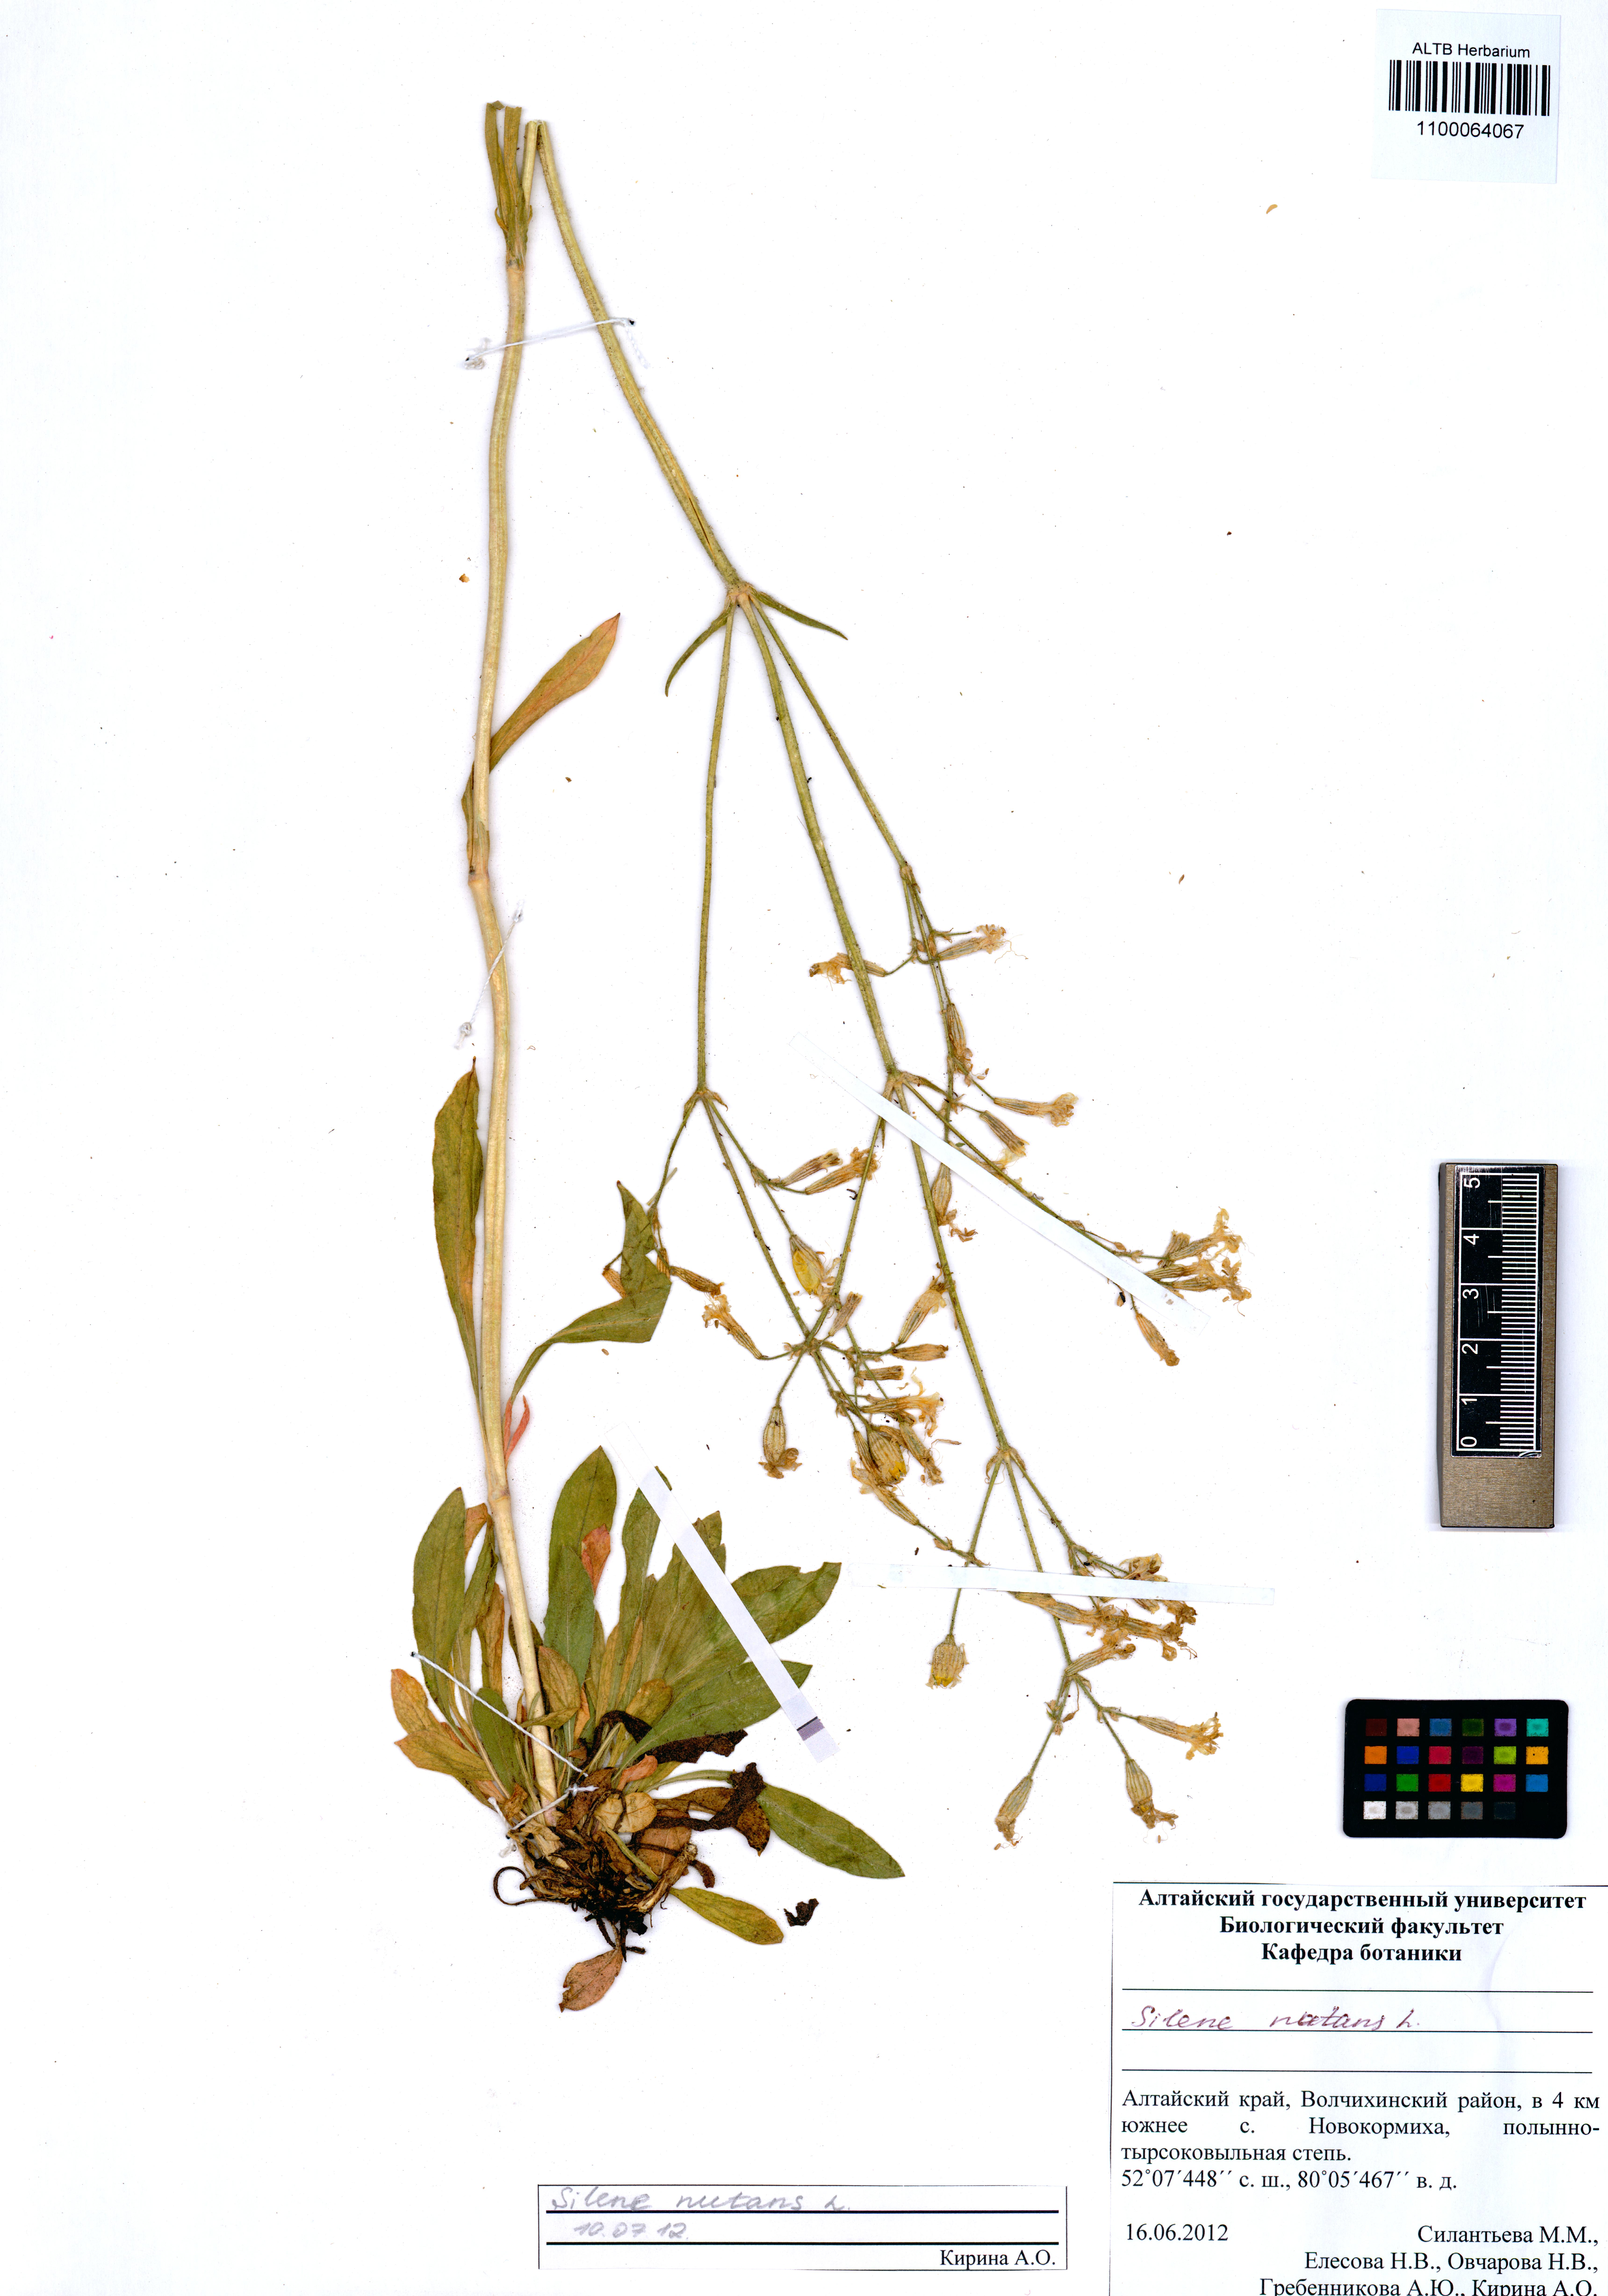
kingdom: Plantae
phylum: Tracheophyta
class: Magnoliopsida
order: Caryophyllales
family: Caryophyllaceae
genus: Silene
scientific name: Silene nutans
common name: Nottingham catchfly
